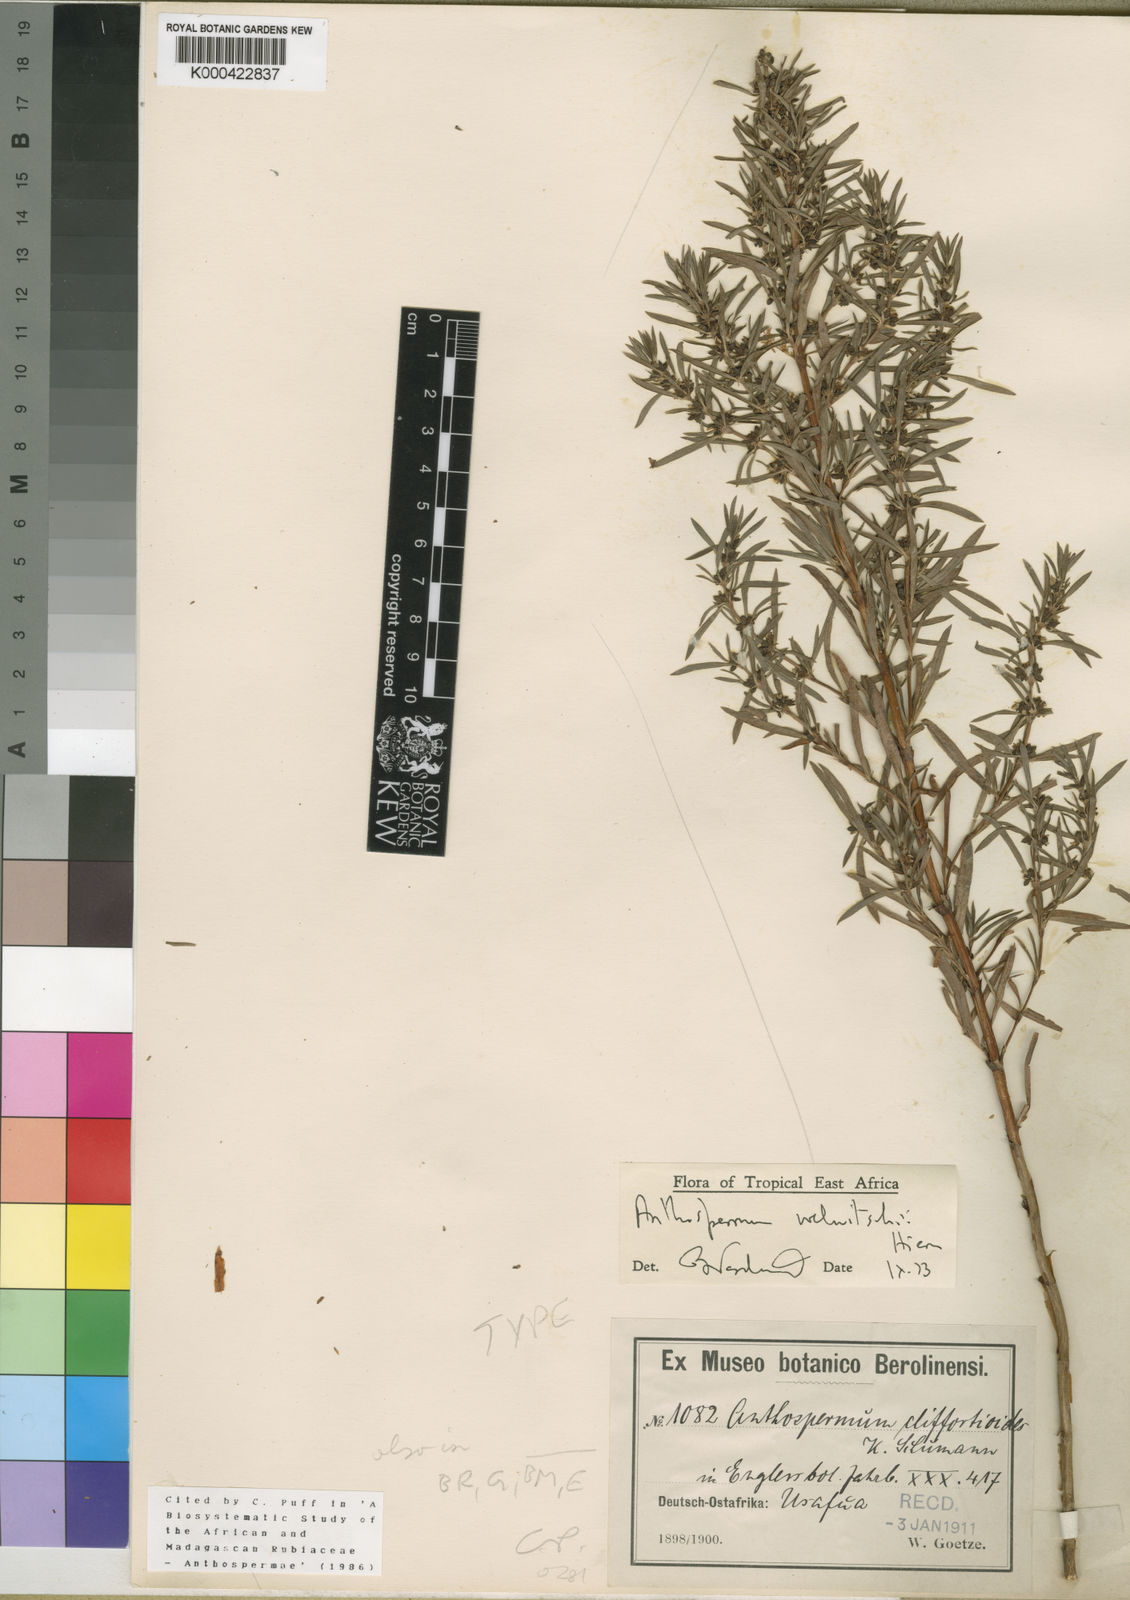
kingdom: Plantae
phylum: Tracheophyta
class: Magnoliopsida
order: Gentianales
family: Rubiaceae
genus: Anthospermum
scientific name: Anthospermum welwitschii
